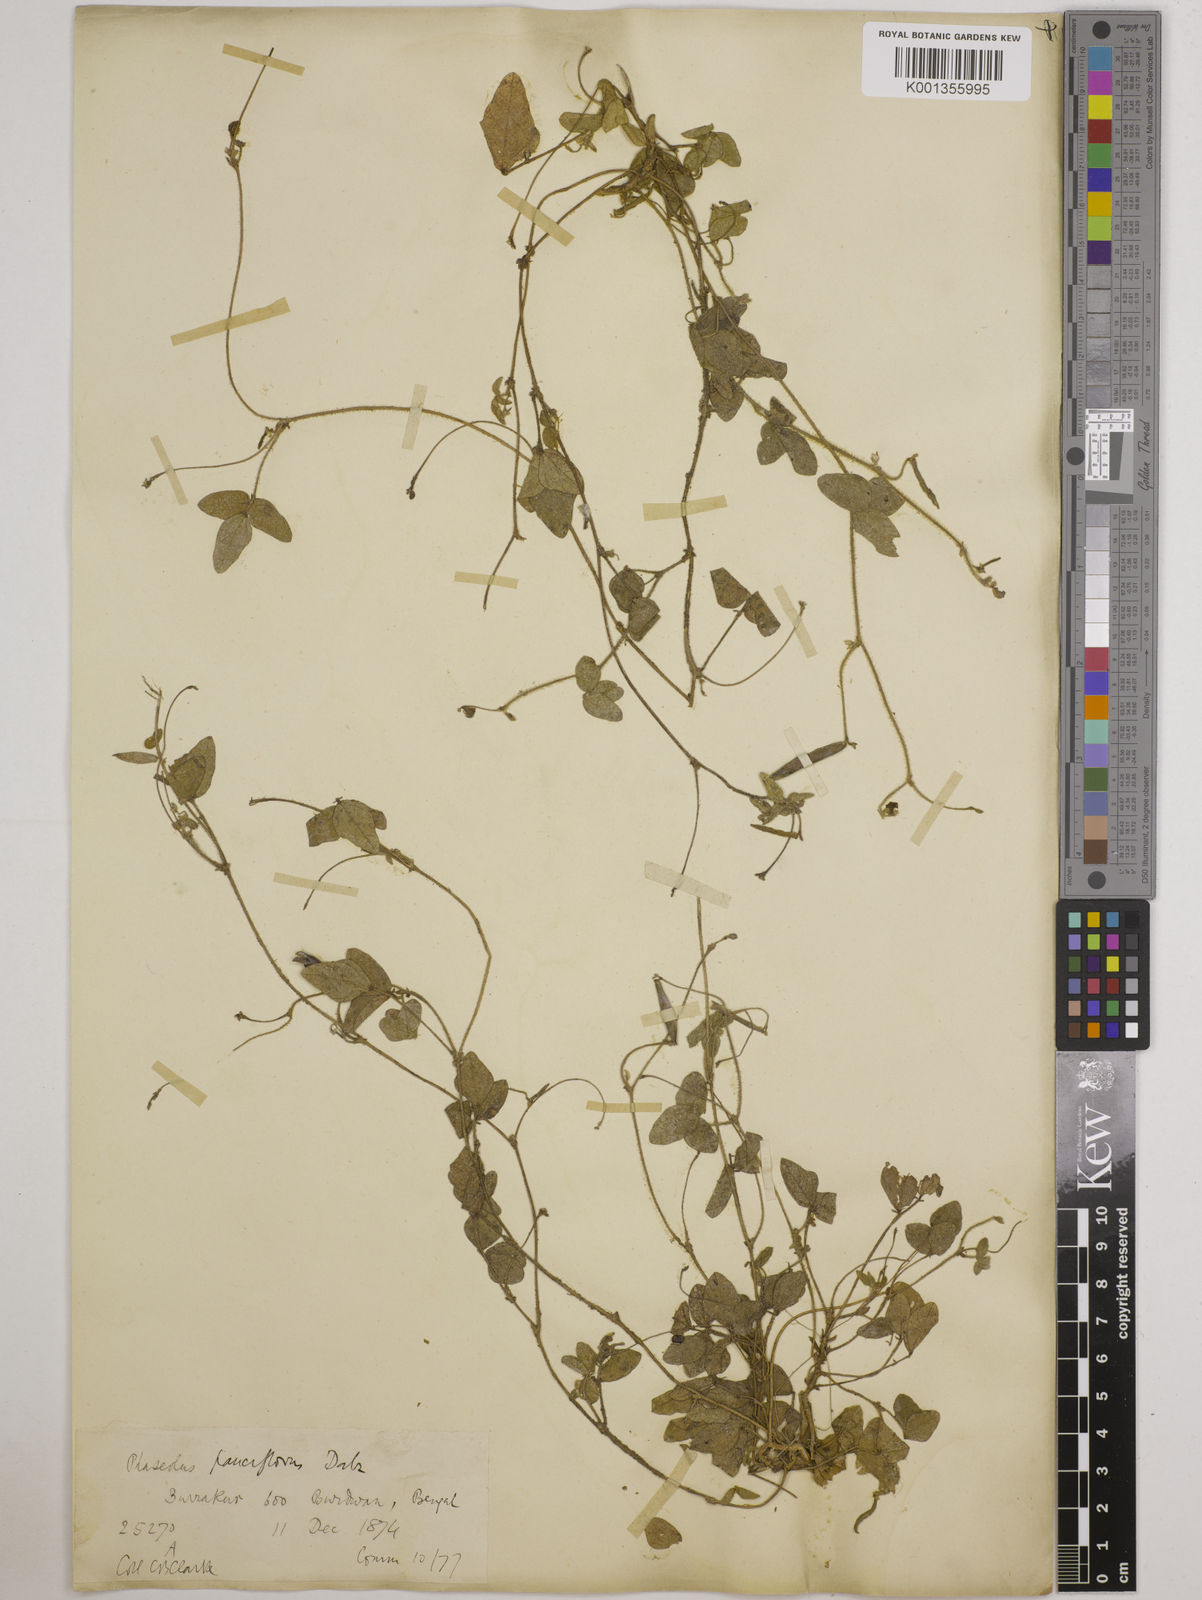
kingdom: Plantae
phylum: Tracheophyta
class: Magnoliopsida
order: Fabales
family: Fabaceae
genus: Vigna
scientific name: Vigna dalzelliana
